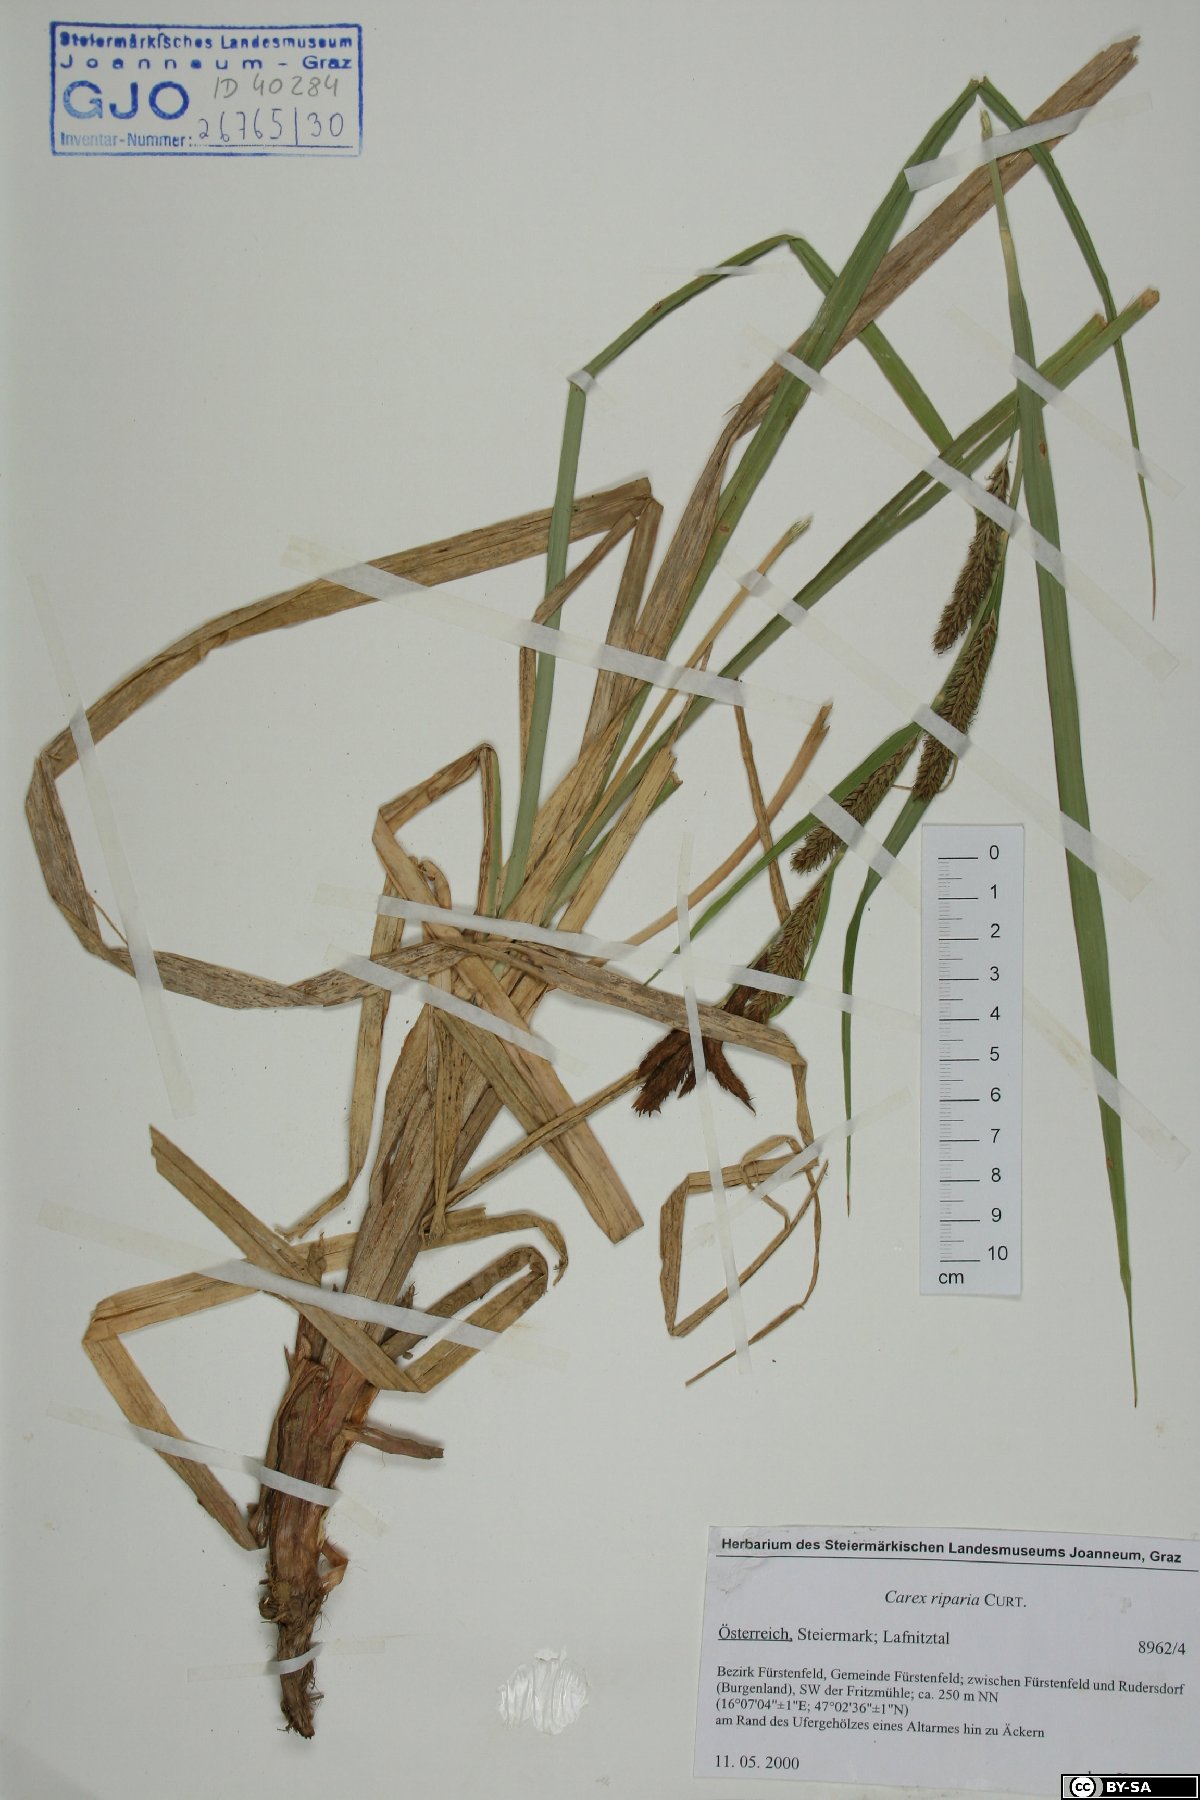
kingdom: Plantae
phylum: Tracheophyta
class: Liliopsida
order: Poales
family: Cyperaceae
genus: Carex
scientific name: Carex riparia
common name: Greater pond-sedge
